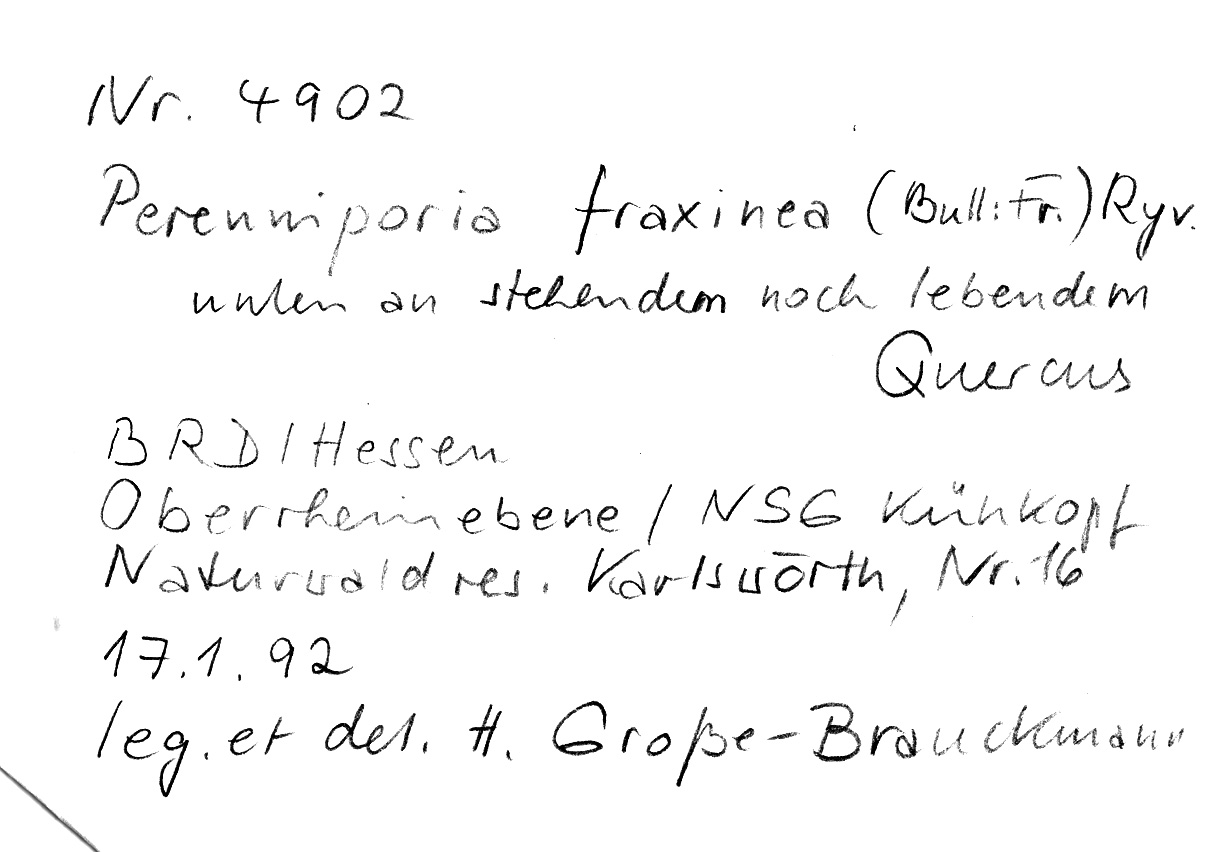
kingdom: Fungi
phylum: Basidiomycota
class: Agaricomycetes
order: Polyporales
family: Polyporaceae
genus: Vanderbylia
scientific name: Vanderbylia fraxinea
